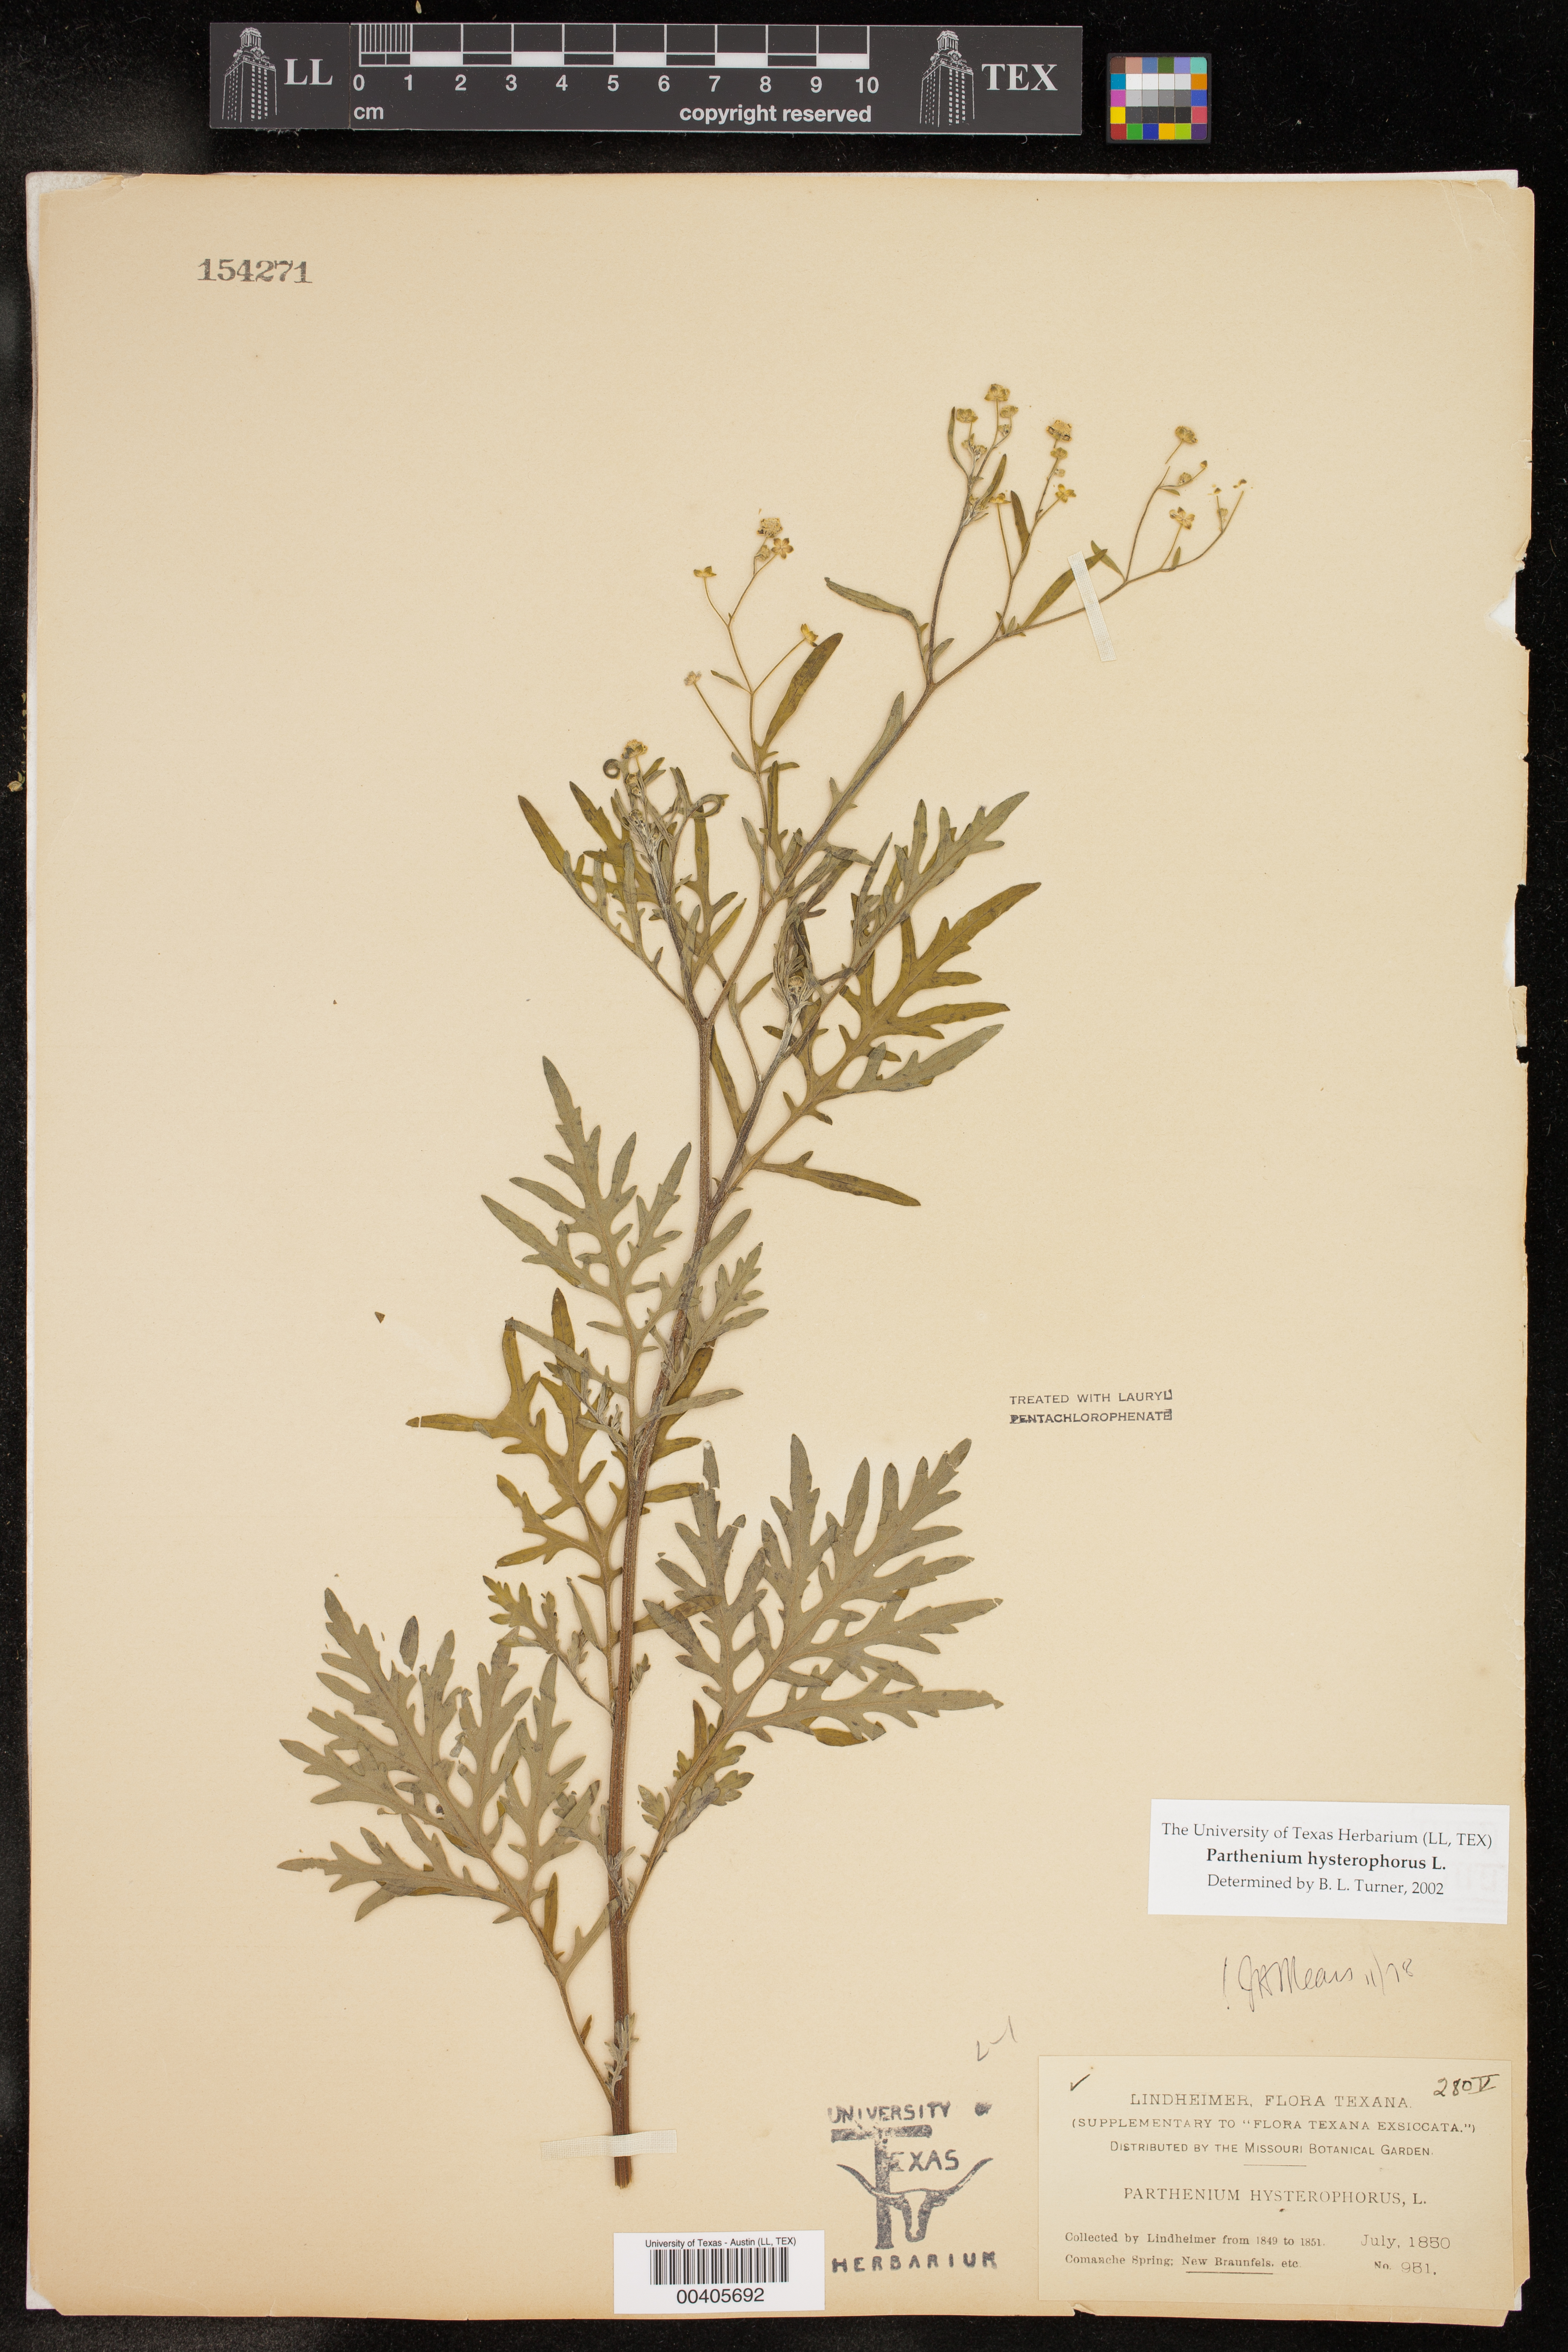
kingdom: Plantae
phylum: Tracheophyta
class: Magnoliopsida
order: Asterales
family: Asteraceae
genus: Parthenium
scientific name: Parthenium hysterophorus
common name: Santa maria feverfew
